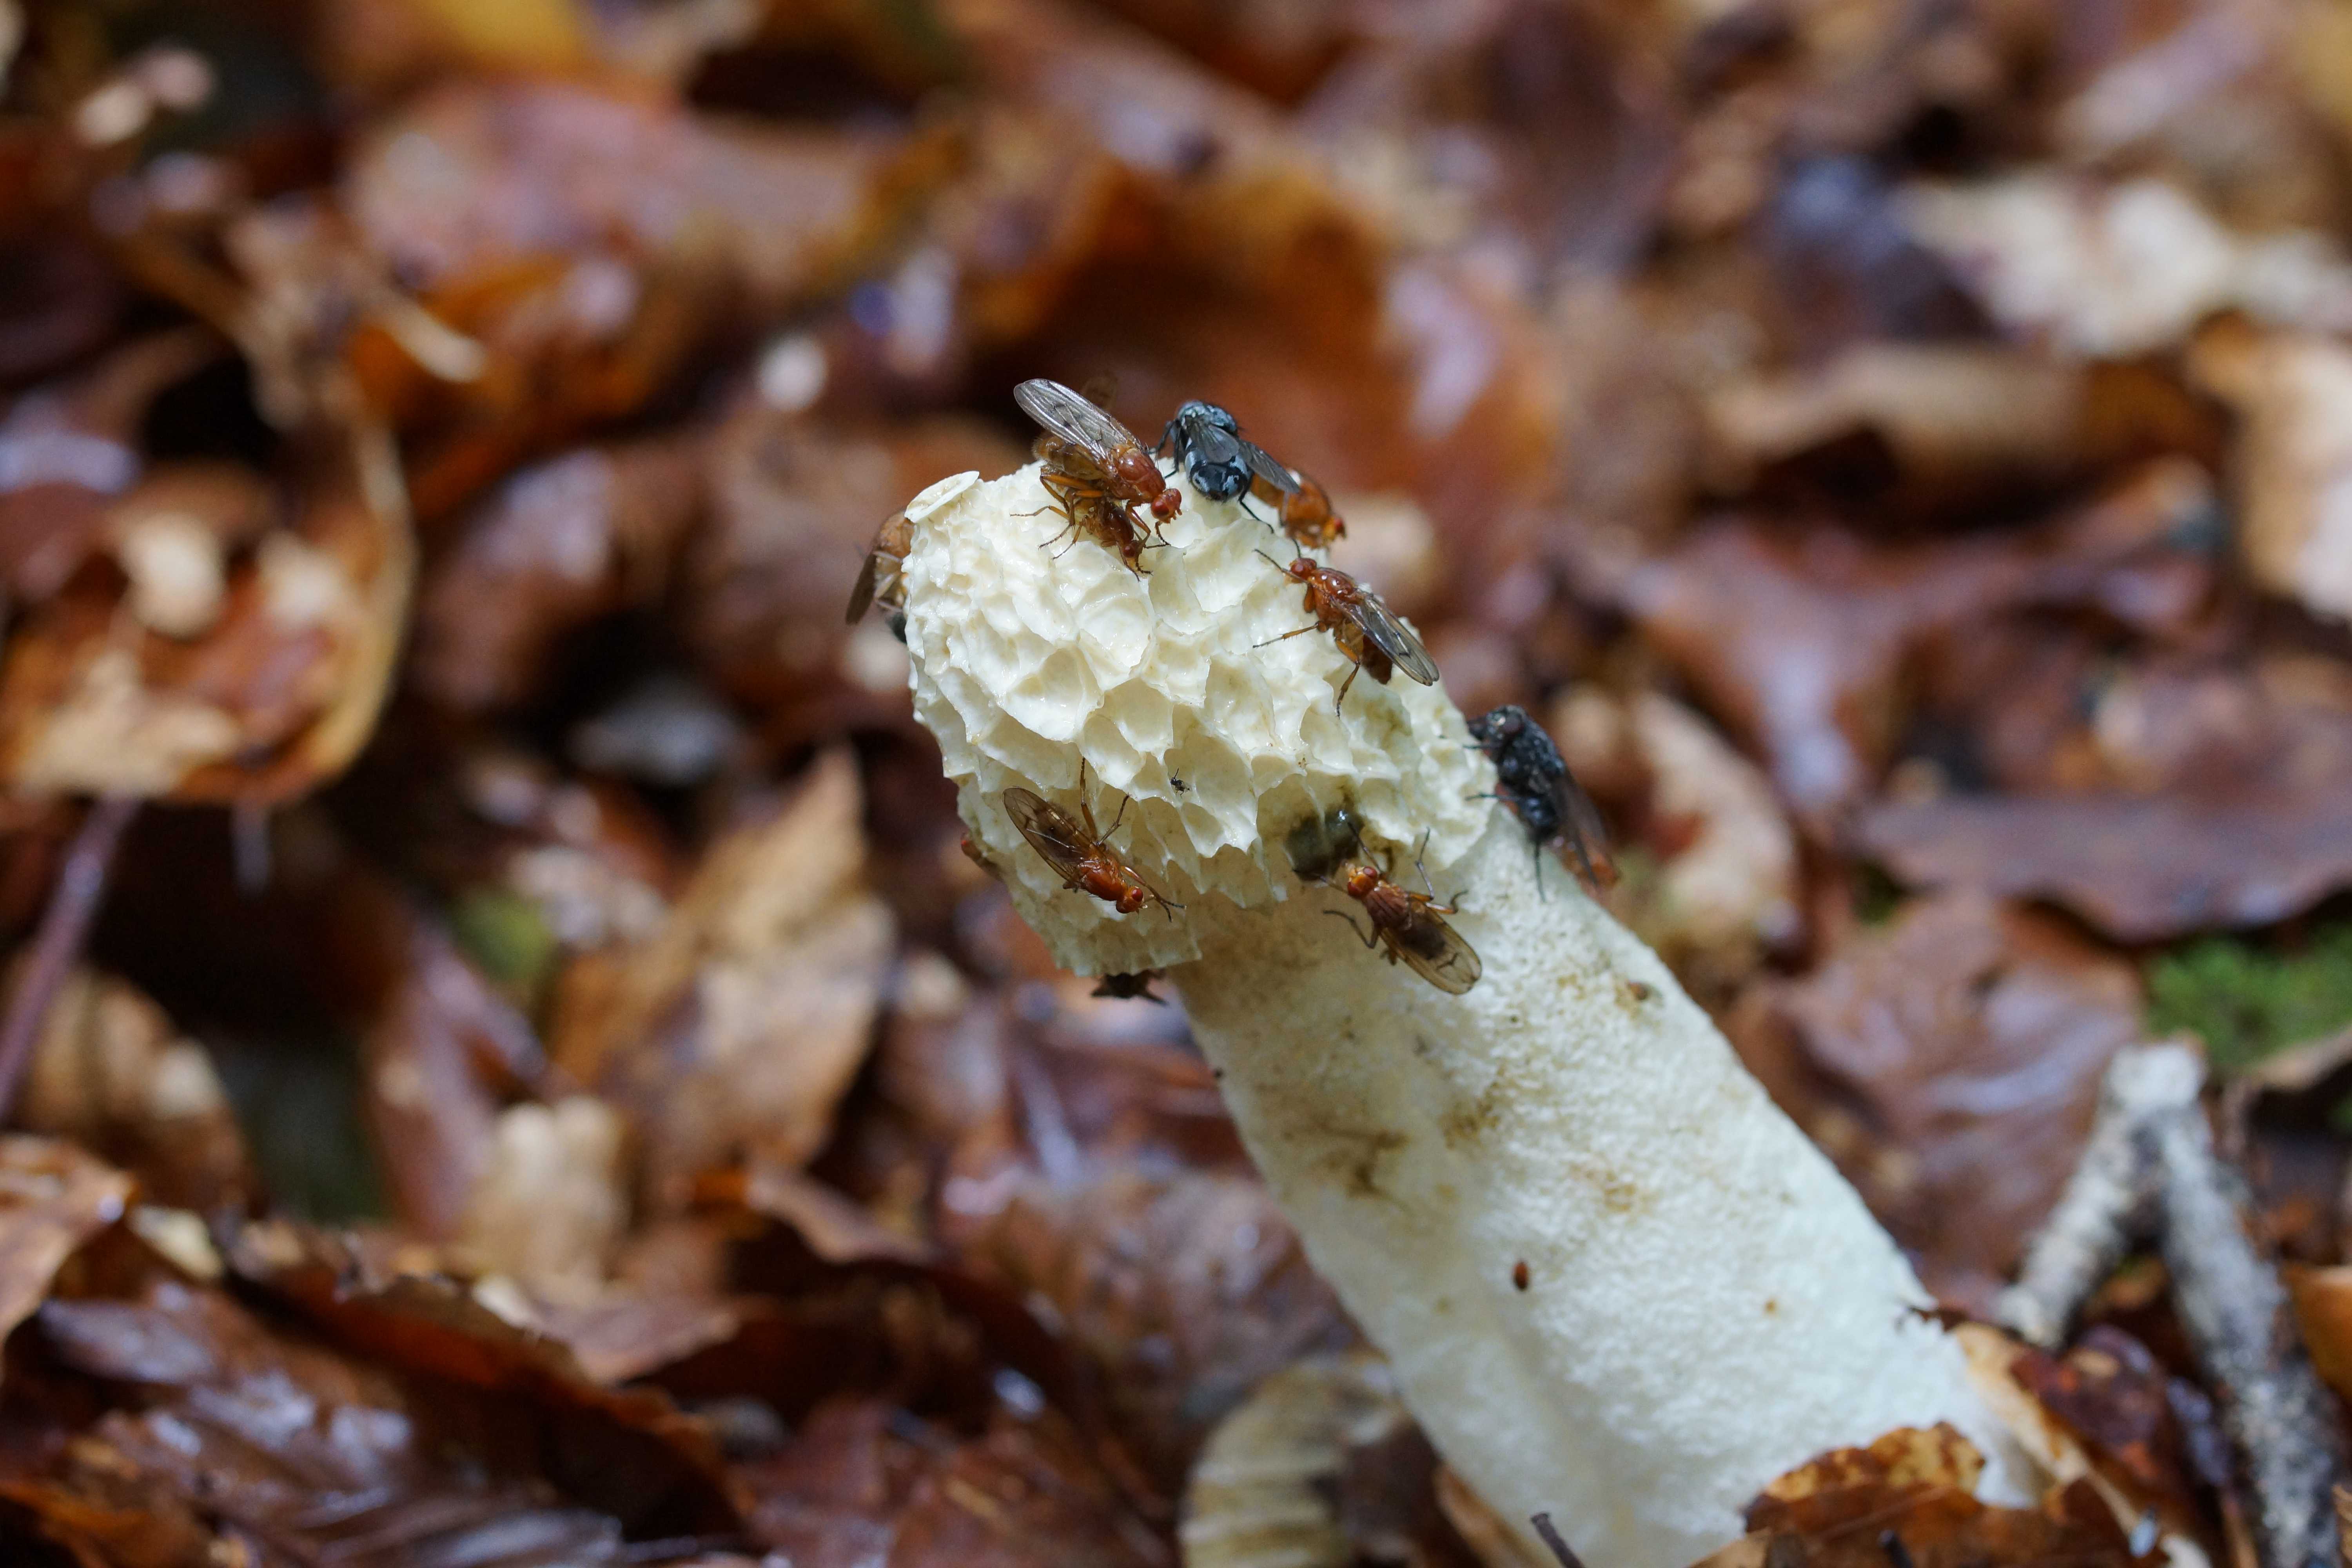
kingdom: Fungi
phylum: Basidiomycota
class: Agaricomycetes
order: Phallales
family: Phallaceae
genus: Phallus
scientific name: Phallus impudicus
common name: almindelig stinksvamp
